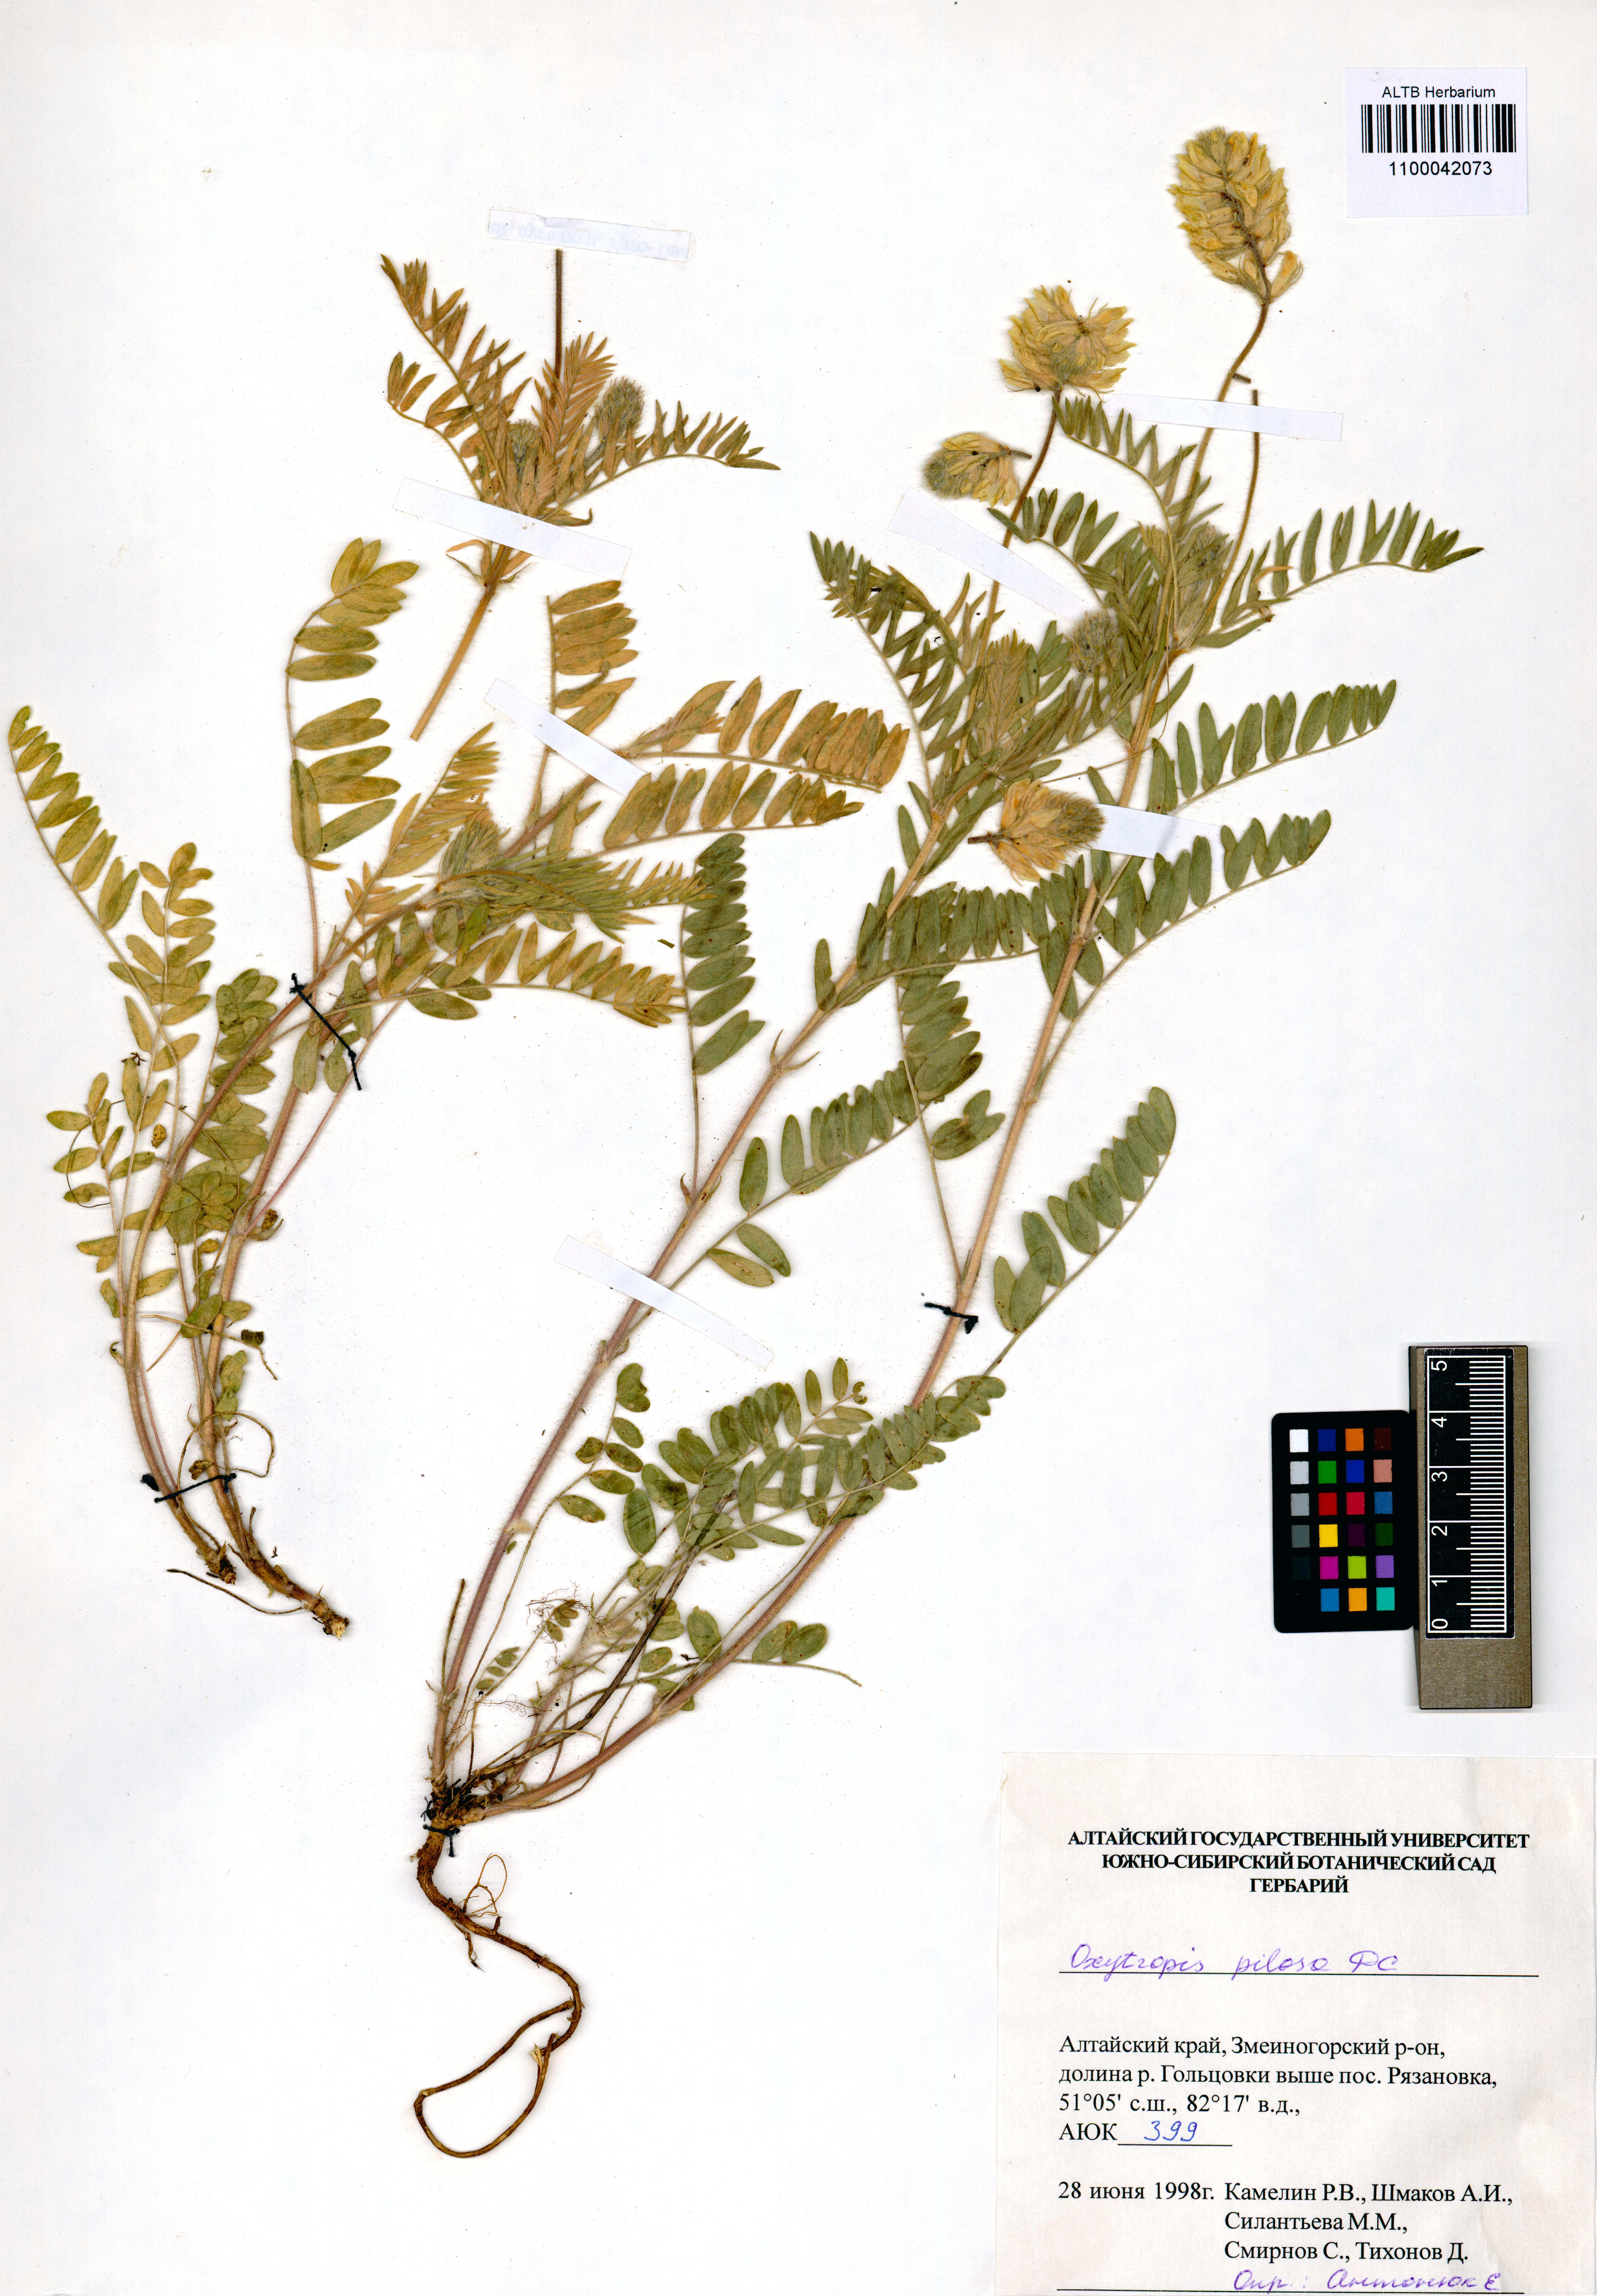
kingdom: Plantae
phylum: Tracheophyta
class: Magnoliopsida
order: Fabales
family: Fabaceae
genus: Oxytropis
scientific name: Oxytropis pilosa
